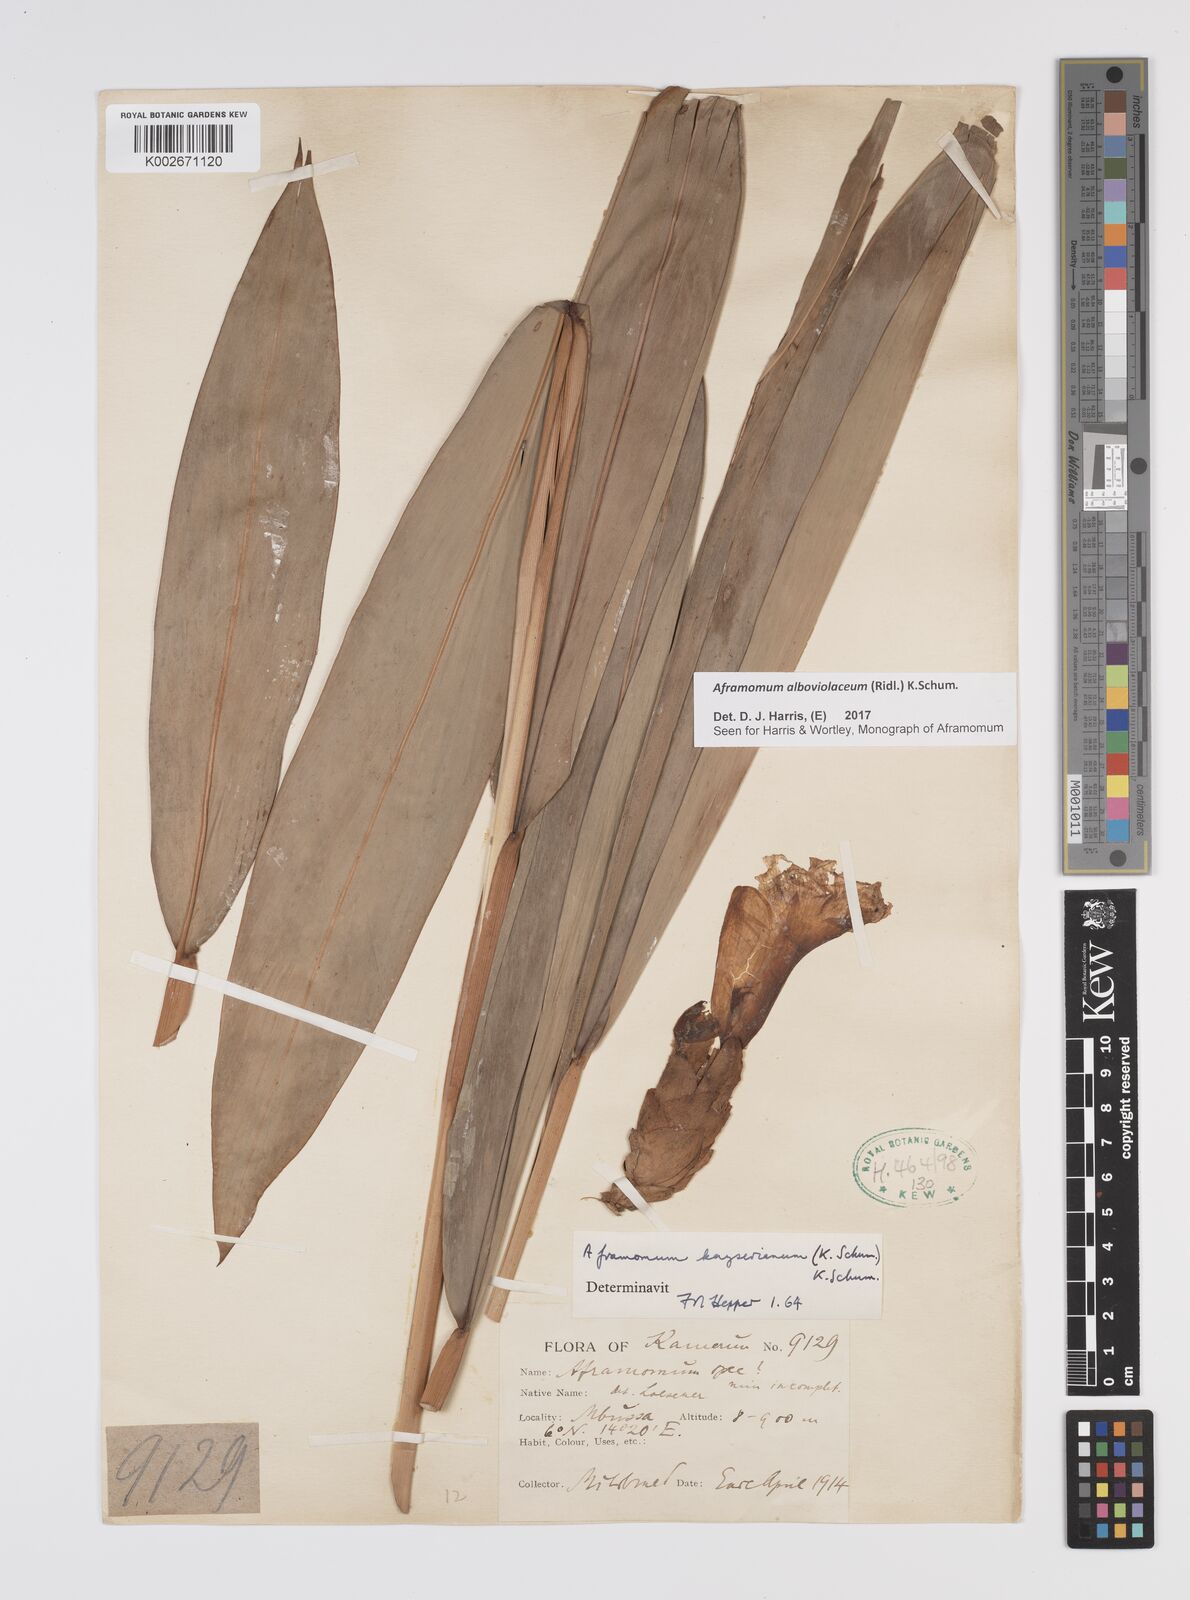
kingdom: Plantae
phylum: Tracheophyta
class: Liliopsida
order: Zingiberales
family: Zingiberaceae
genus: Aframomum
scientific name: Aframomum alboviolaceum
